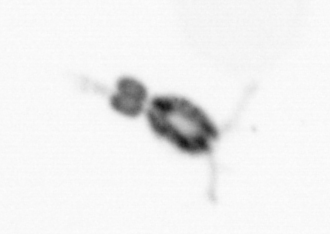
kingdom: Animalia
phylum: Arthropoda
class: Copepoda
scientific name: Copepoda
